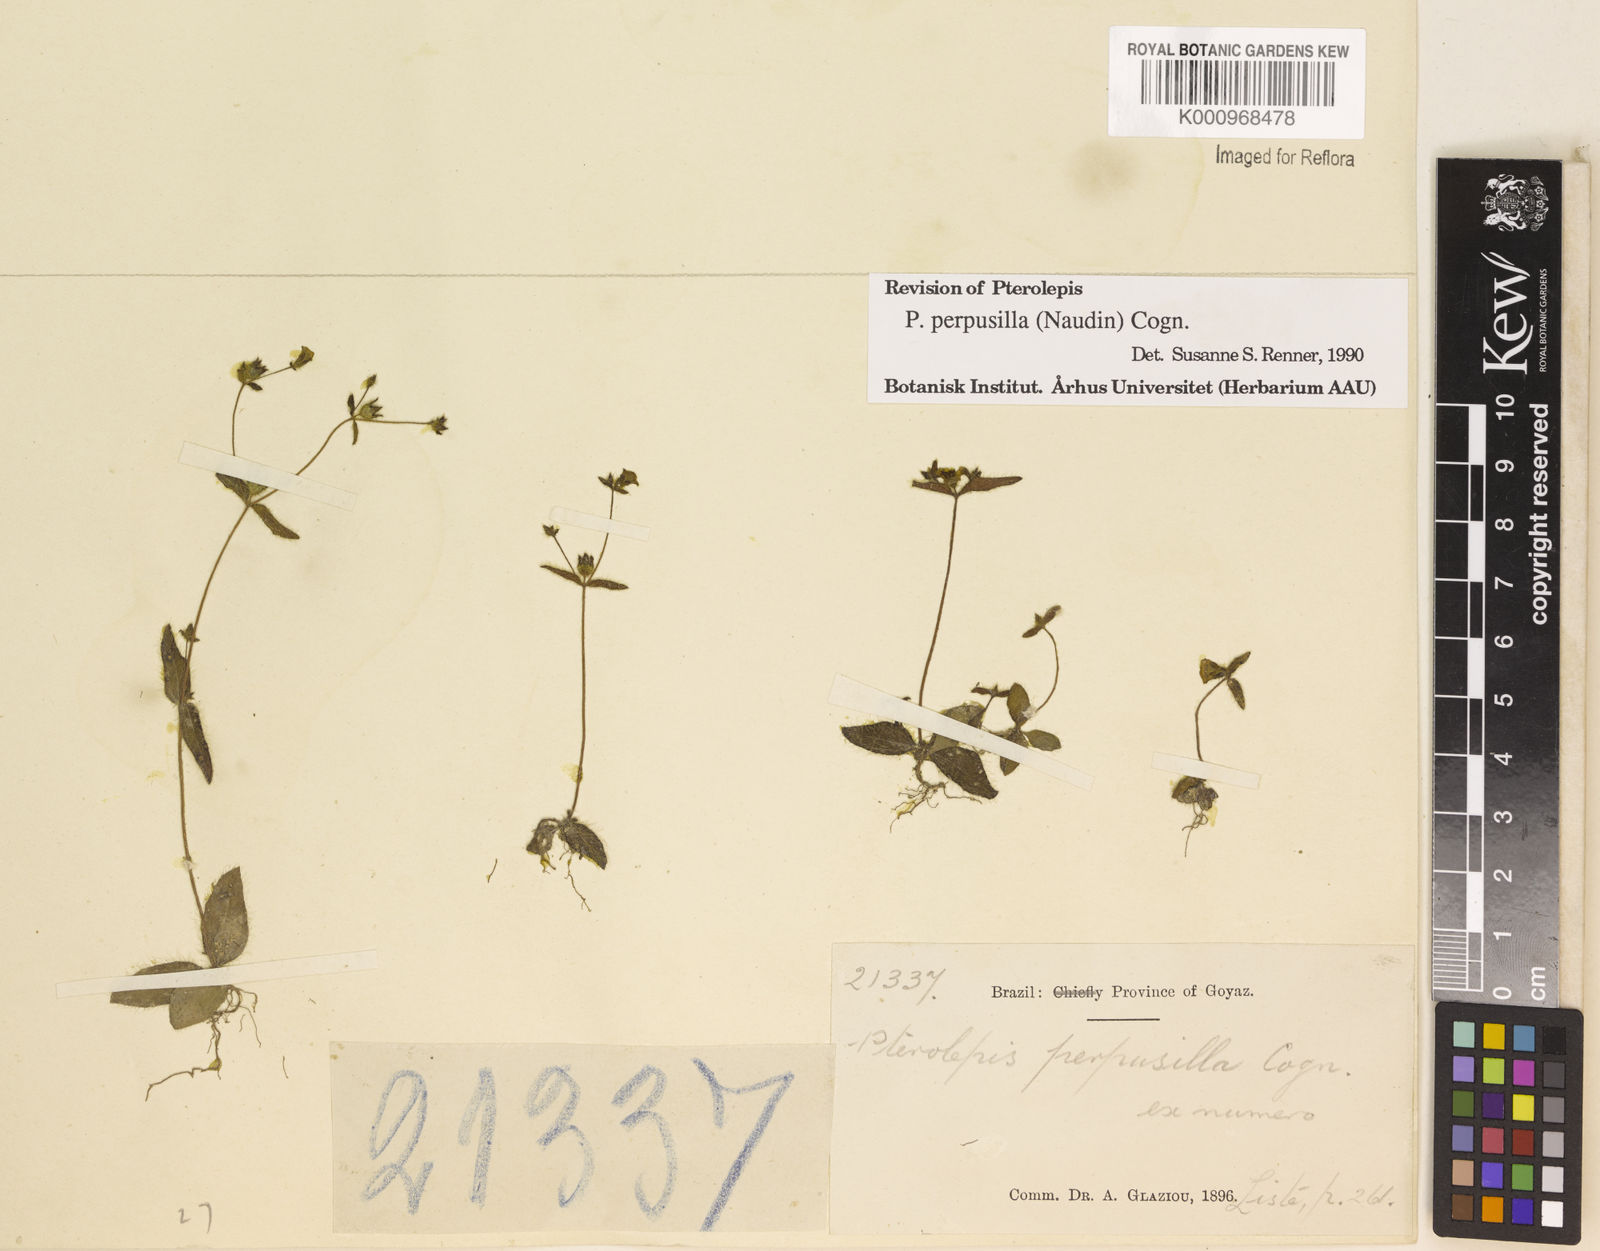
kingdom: Plantae
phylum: Tracheophyta
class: Magnoliopsida
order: Myrtales
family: Melastomataceae
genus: Pterolepis
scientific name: Pterolepis perpusilla
